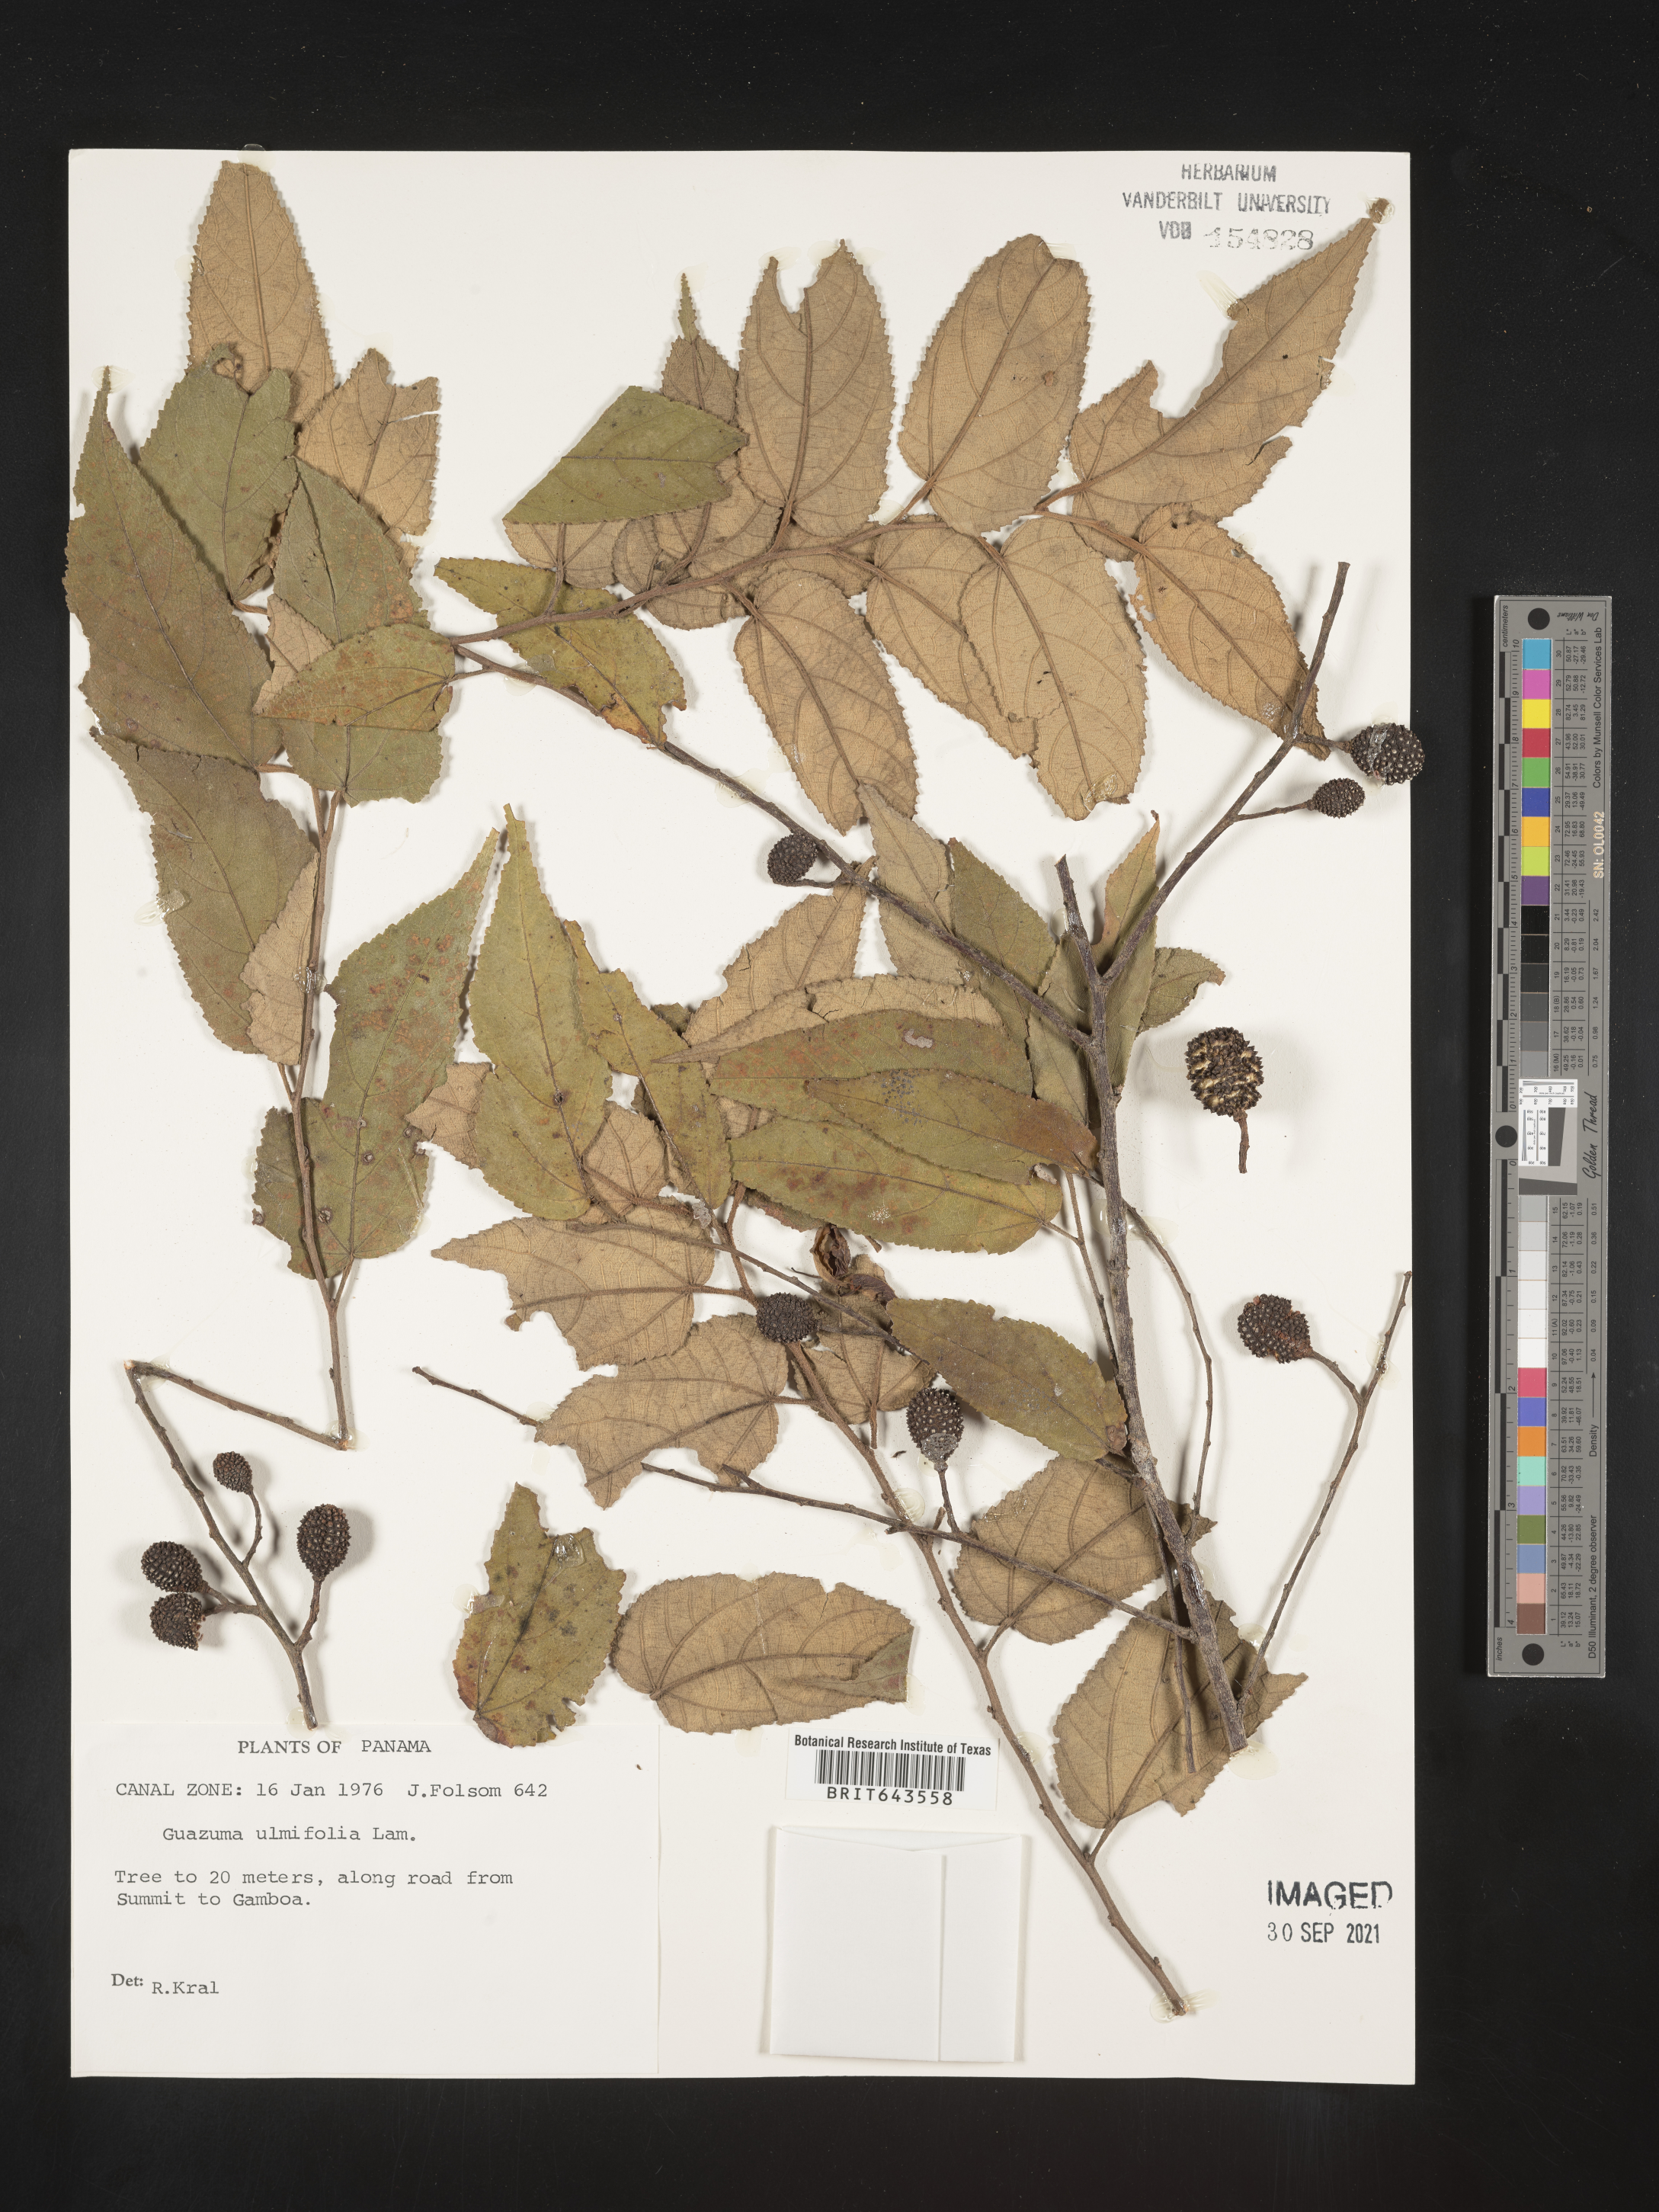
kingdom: Plantae
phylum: Tracheophyta
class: Magnoliopsida
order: Malvales
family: Malvaceae
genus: Guazuma
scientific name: Guazuma
